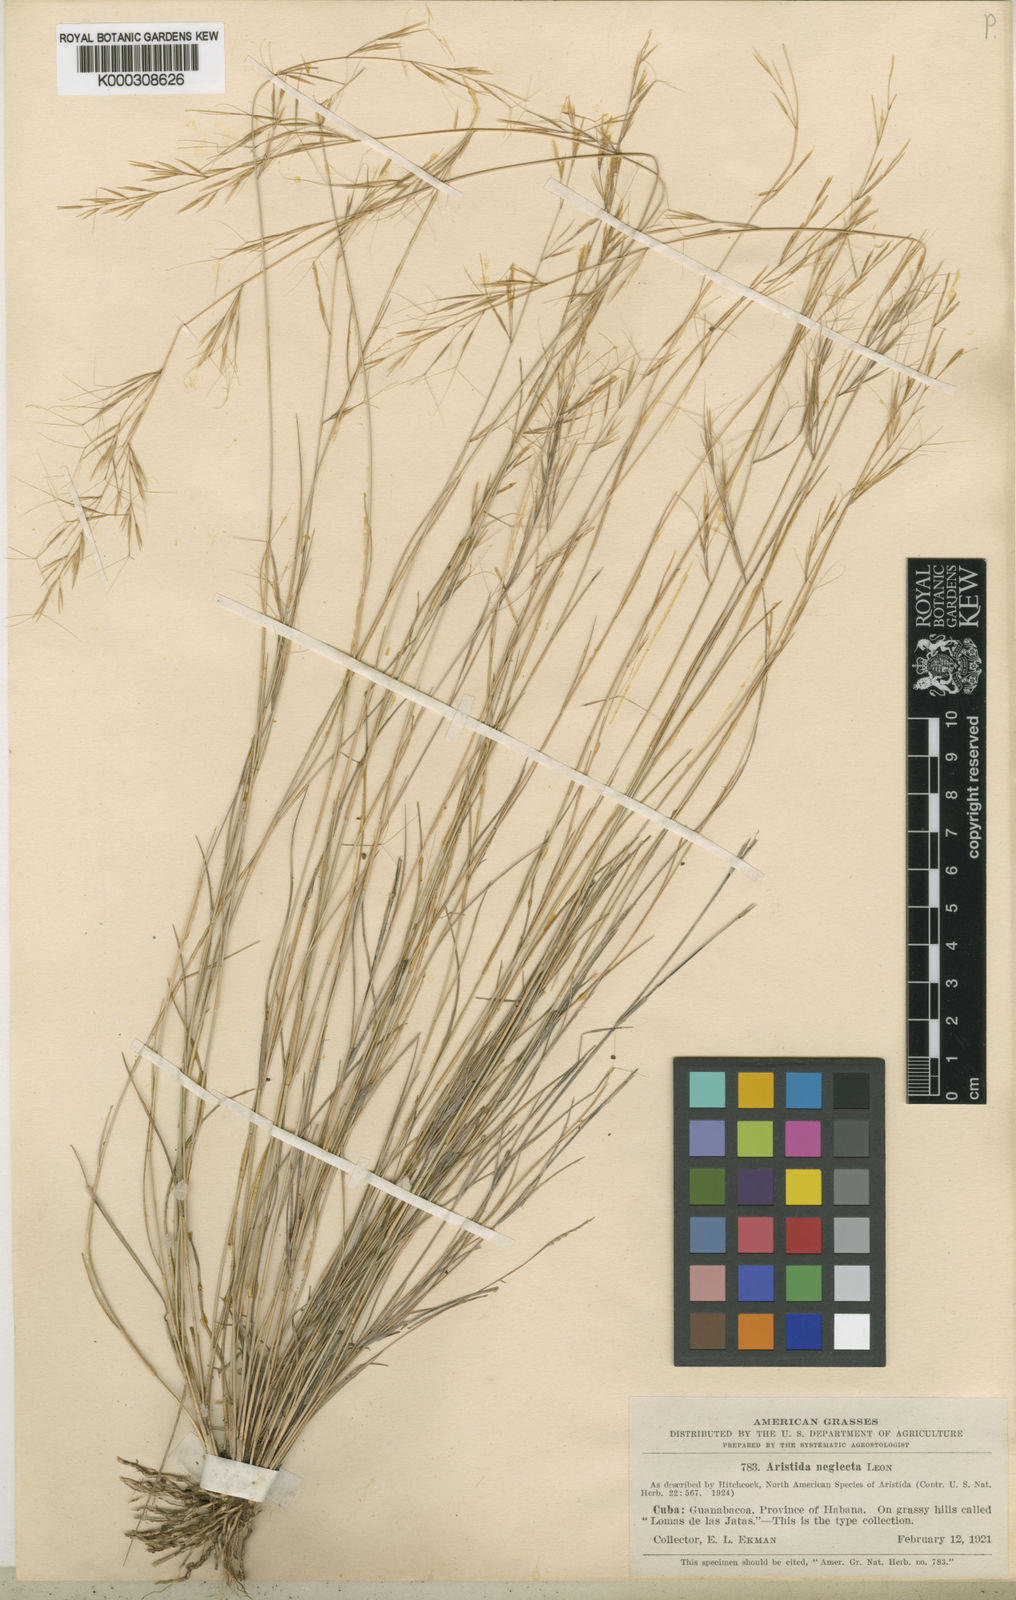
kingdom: Plantae
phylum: Tracheophyta
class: Liliopsida
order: Poales
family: Poaceae
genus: Aristida
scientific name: Aristida neglecta
